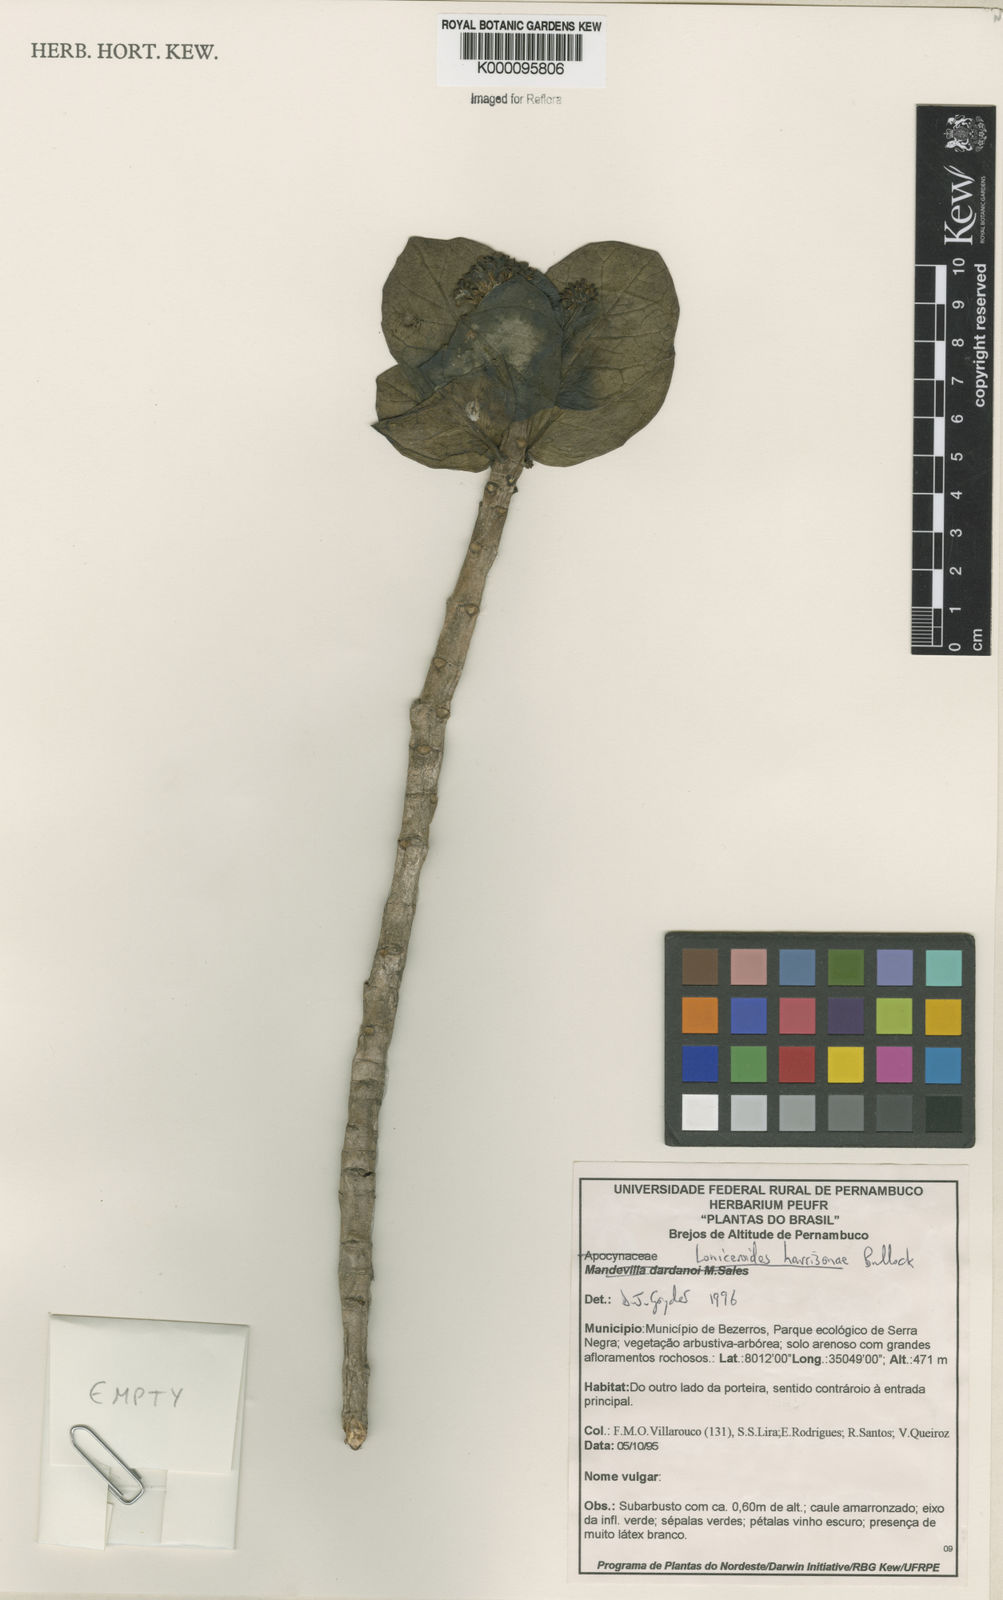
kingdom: Plantae
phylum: Tracheophyta
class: Magnoliopsida
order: Gentianales
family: Apocynaceae
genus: Ruehssia
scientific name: Ruehssia loniceroides
